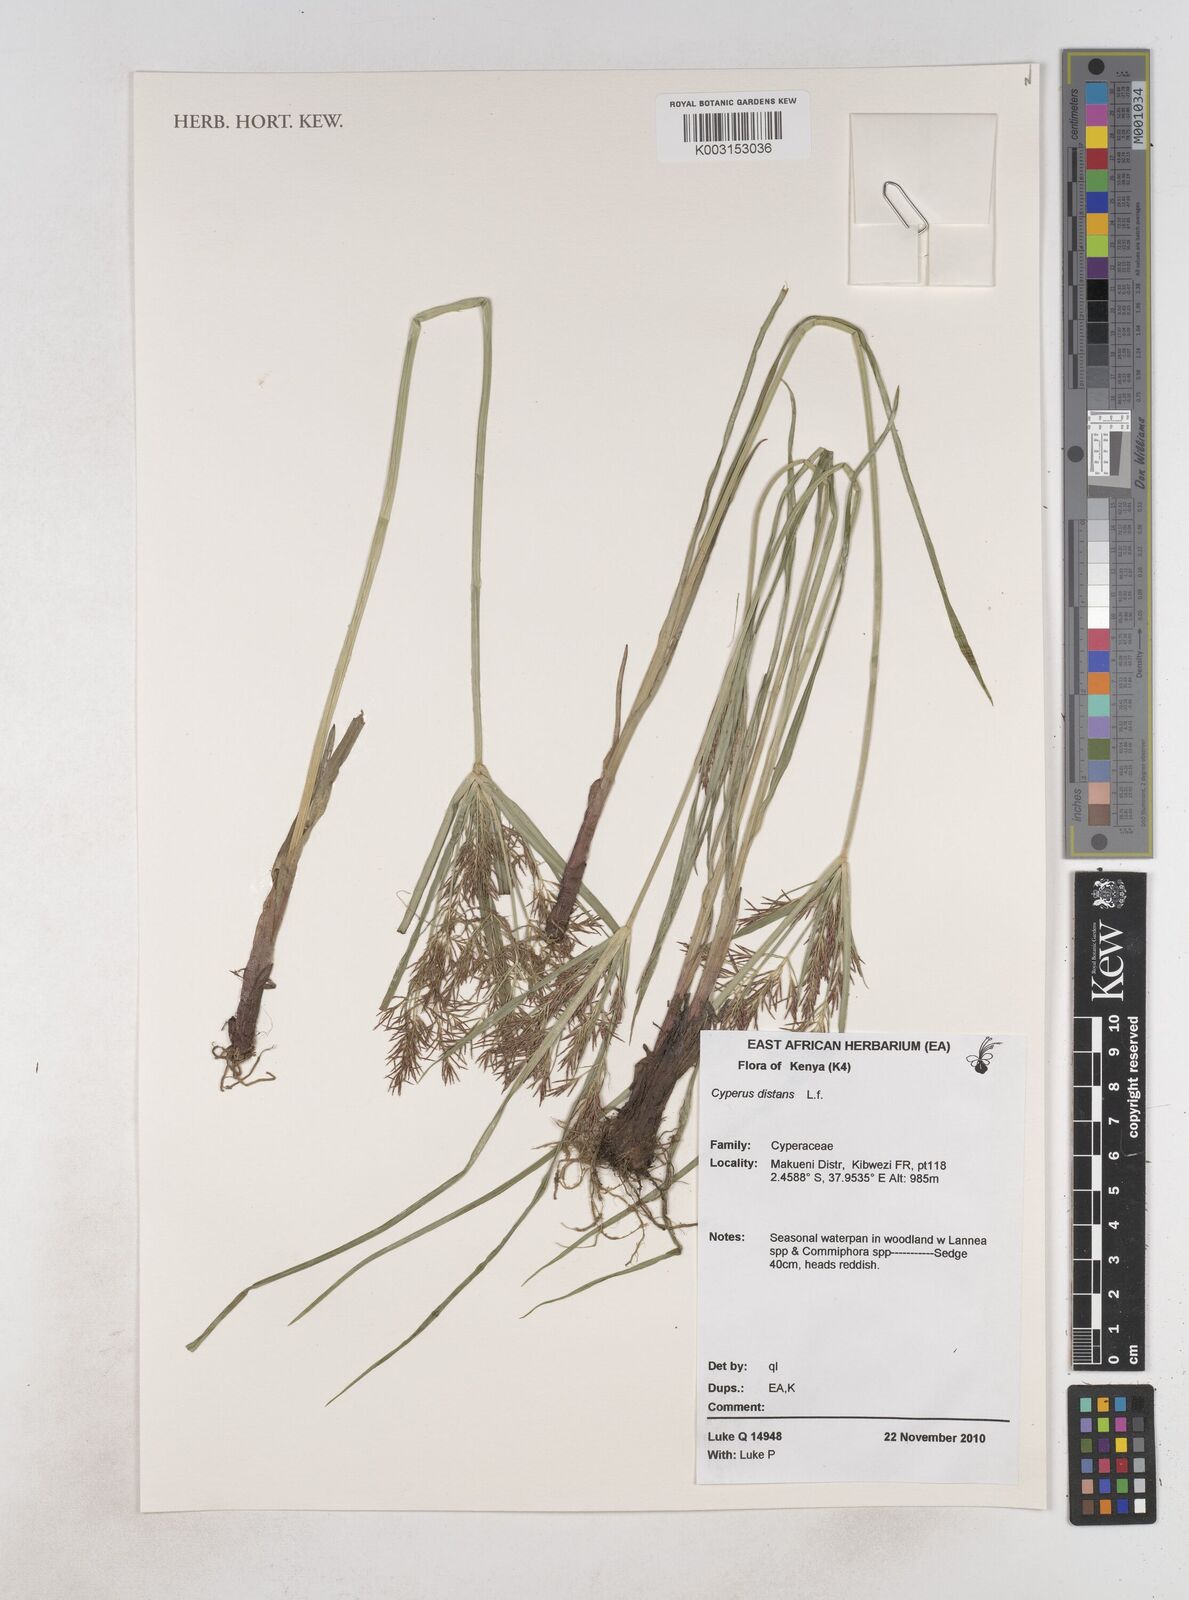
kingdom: Plantae
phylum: Tracheophyta
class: Liliopsida
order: Poales
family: Cyperaceae
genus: Cyperus
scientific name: Cyperus distans
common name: Slender cyperus
